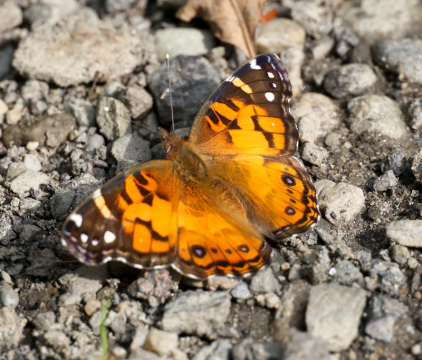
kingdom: Animalia
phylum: Arthropoda
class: Insecta
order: Lepidoptera
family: Nymphalidae
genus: Vanessa
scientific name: Vanessa virginiensis
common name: American Lady
